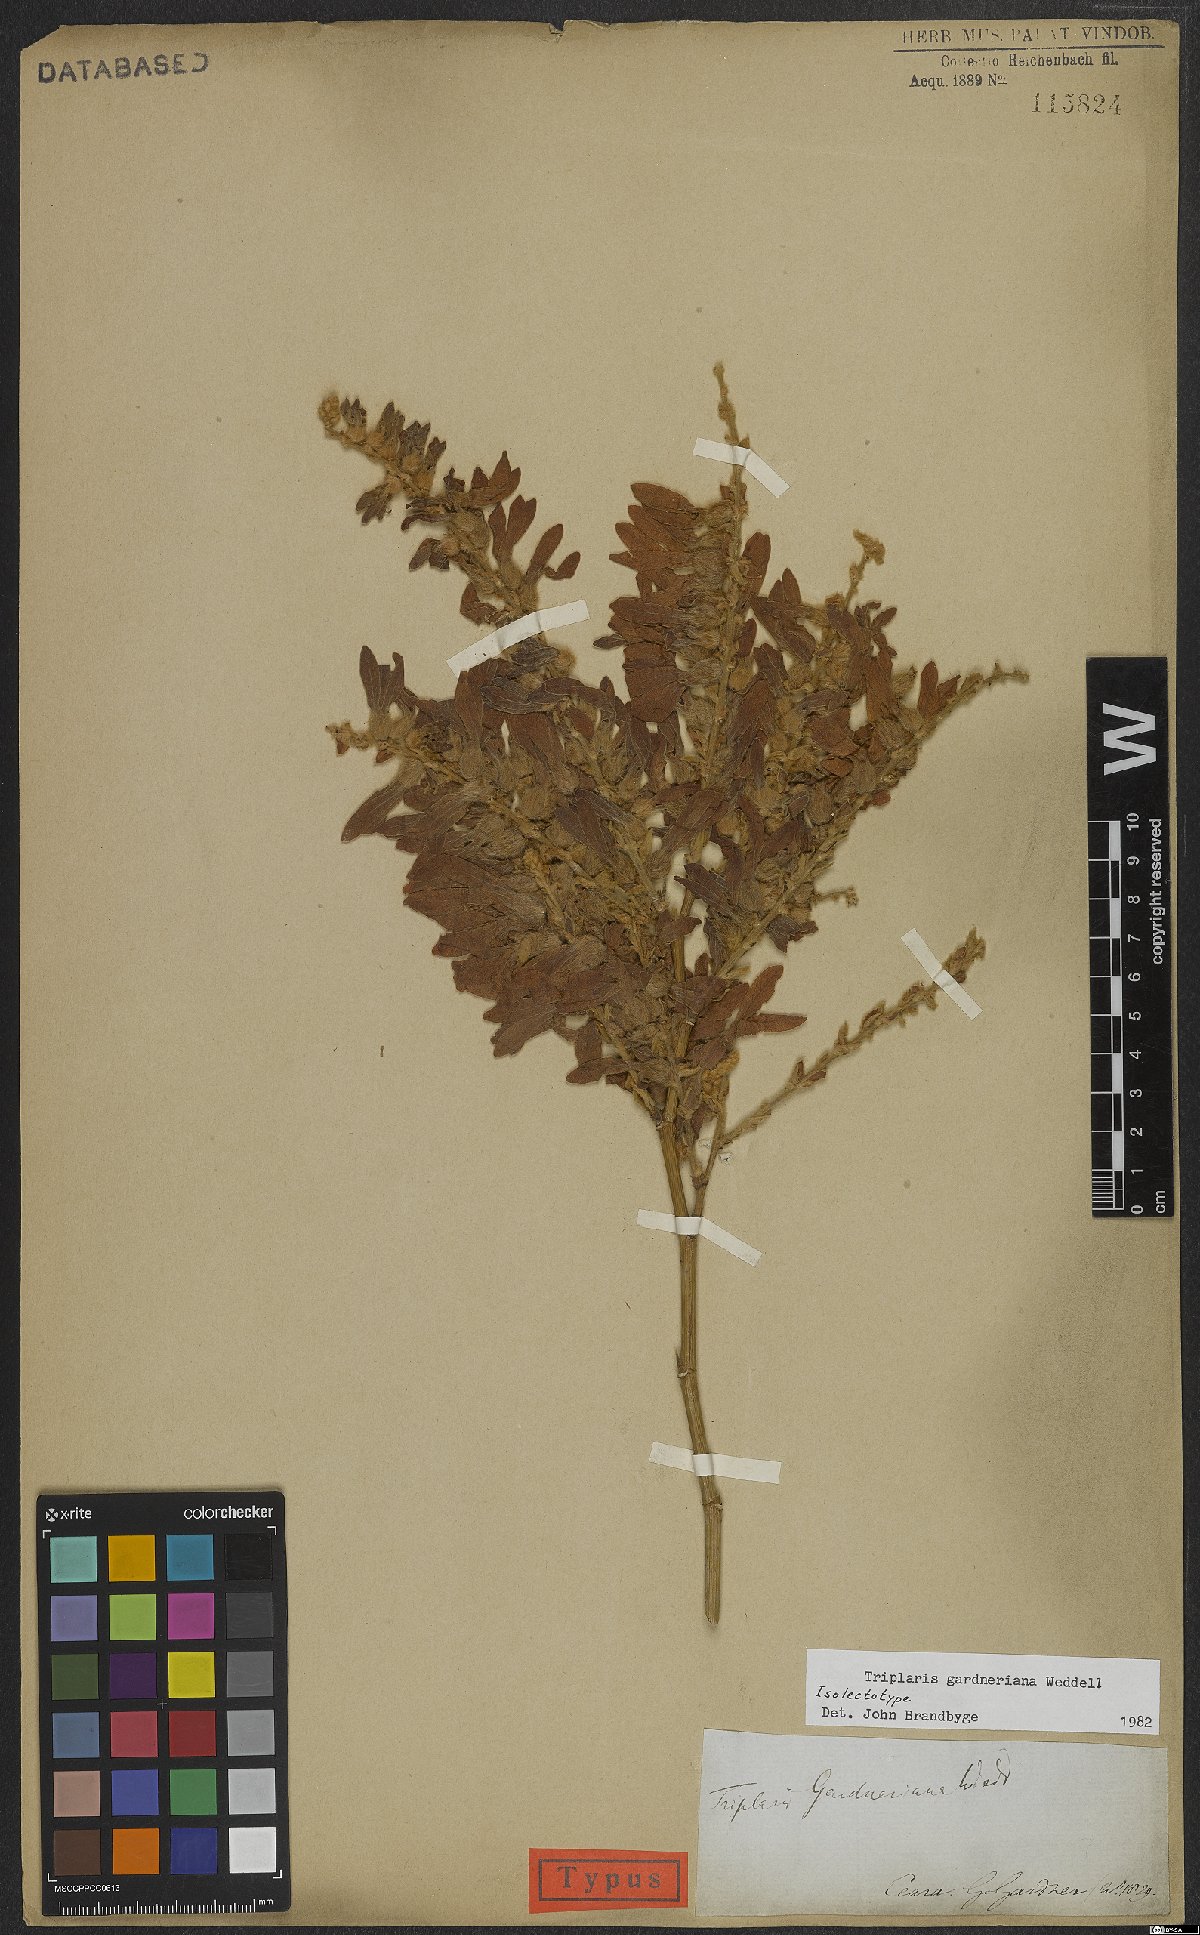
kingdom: Plantae
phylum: Tracheophyta
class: Magnoliopsida
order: Caryophyllales
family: Polygonaceae
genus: Triplaris
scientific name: Triplaris gardneriana
